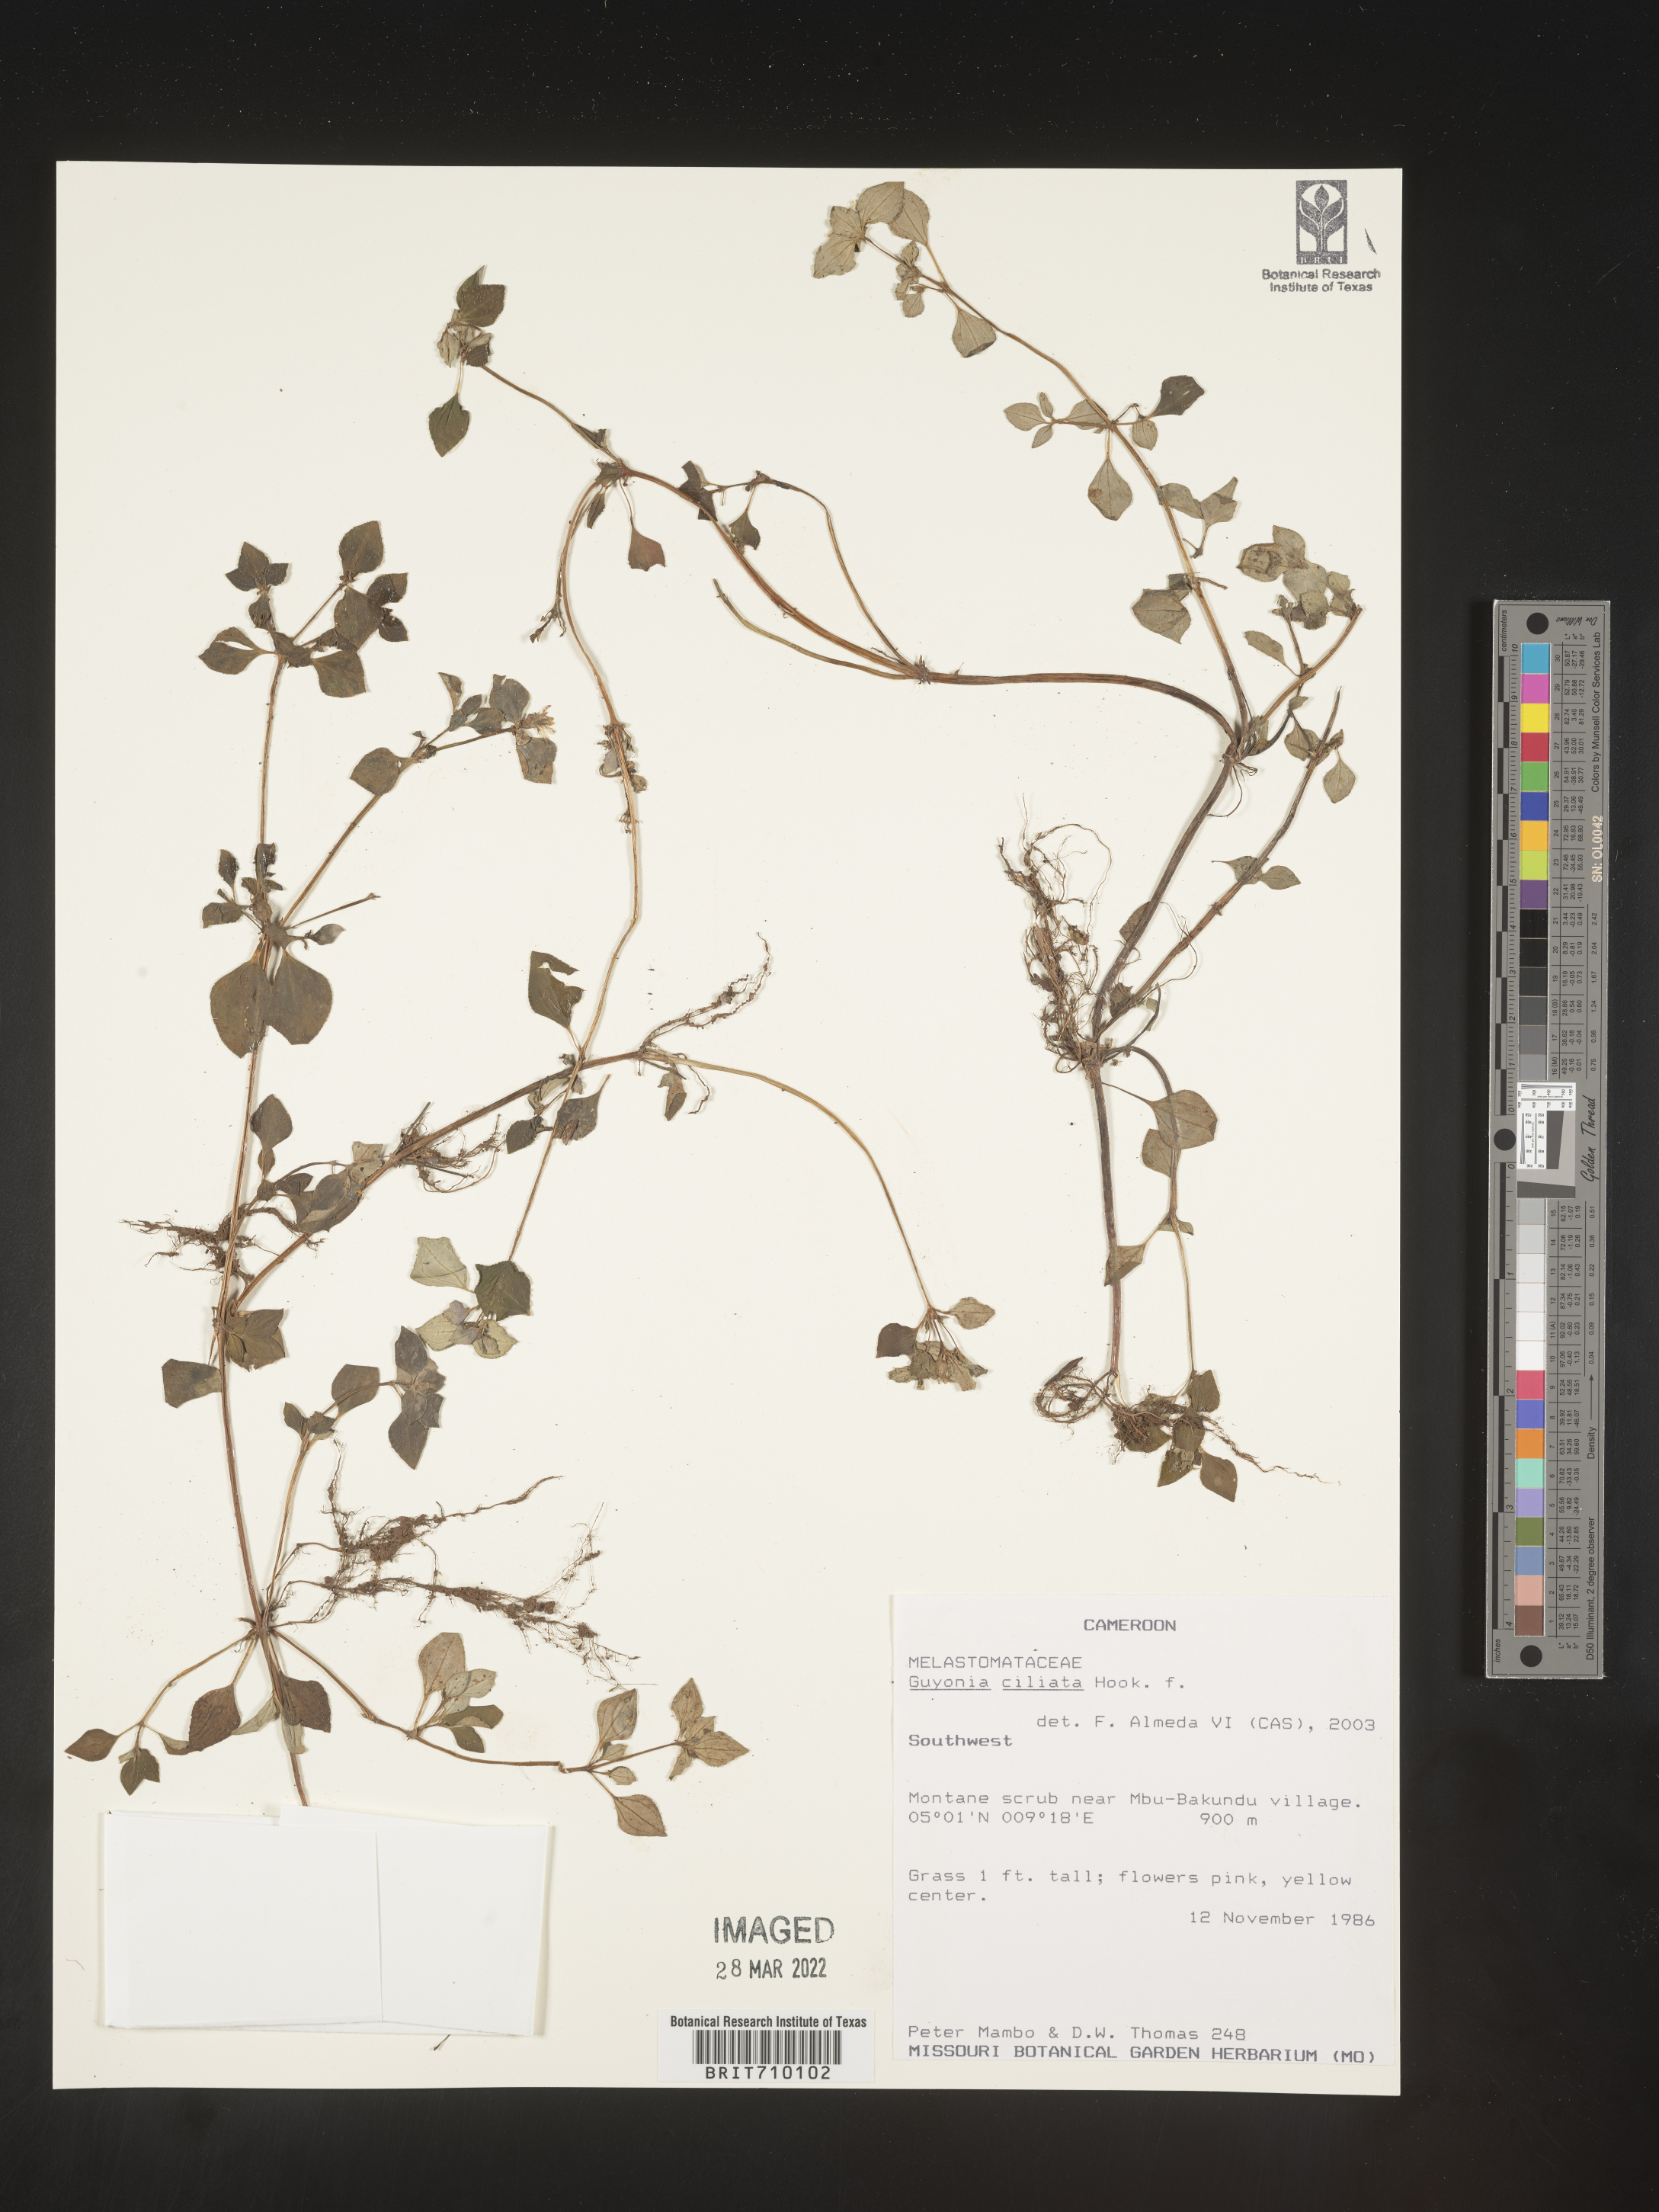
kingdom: Plantae
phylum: Tracheophyta
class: Magnoliopsida
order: Myrtales
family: Melastomataceae
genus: Guyonia
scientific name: Guyonia
